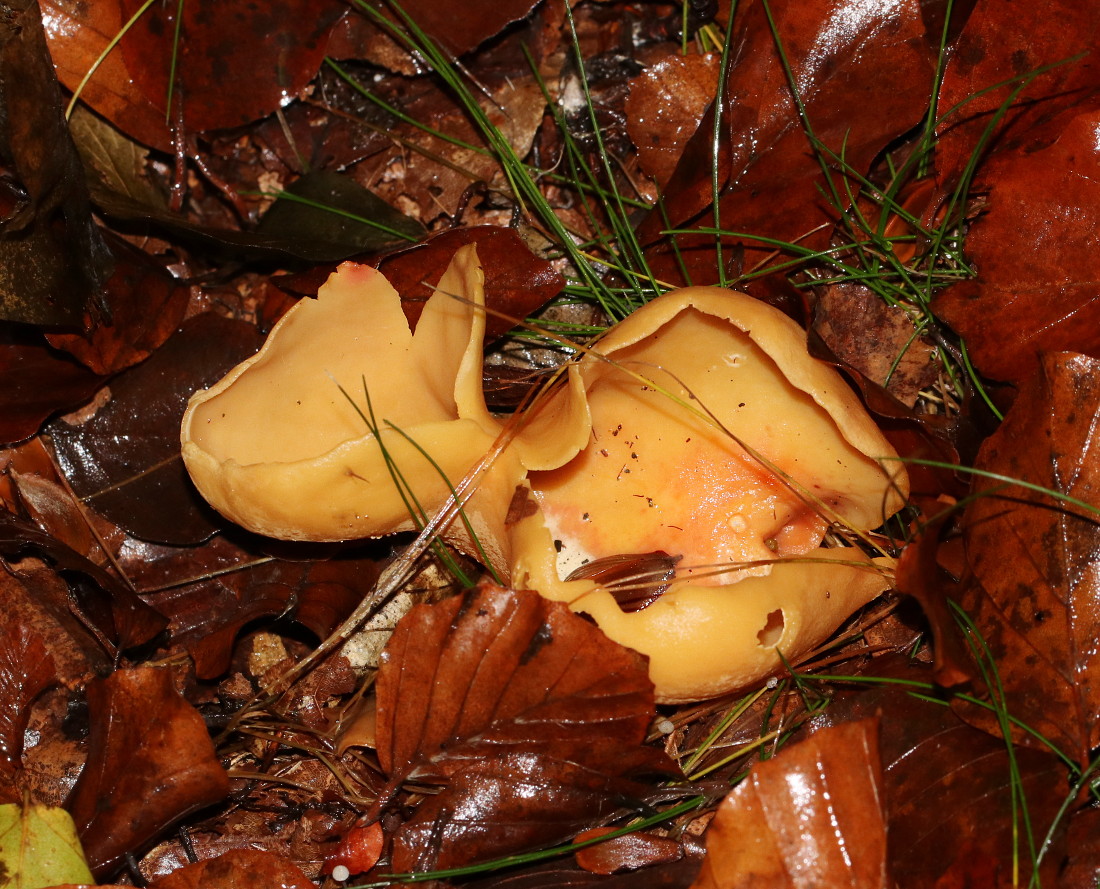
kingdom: Fungi
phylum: Ascomycota
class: Pezizomycetes
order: Pezizales
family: Otideaceae
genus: Otidea
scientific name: Otidea onotica
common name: æsel-ørebæger
